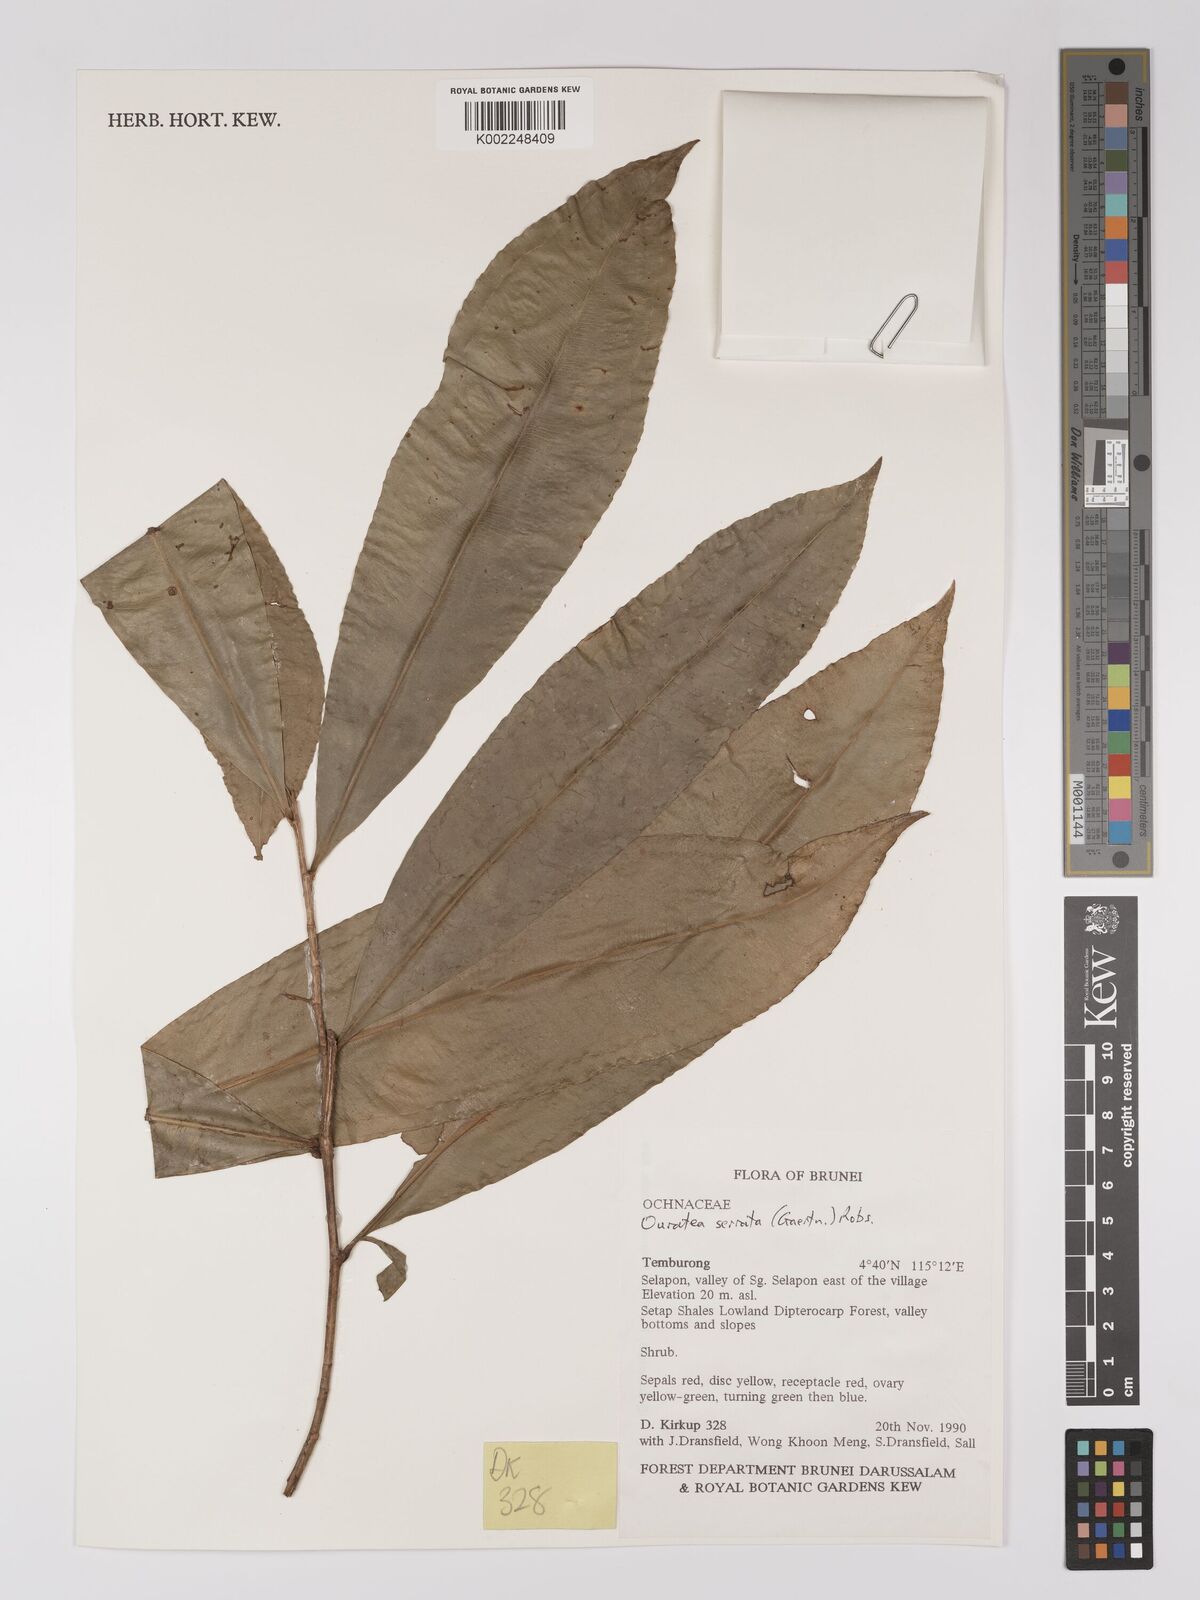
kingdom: Plantae
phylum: Tracheophyta
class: Magnoliopsida
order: Malpighiales
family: Ochnaceae
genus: Gomphia
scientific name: Gomphia serrata
